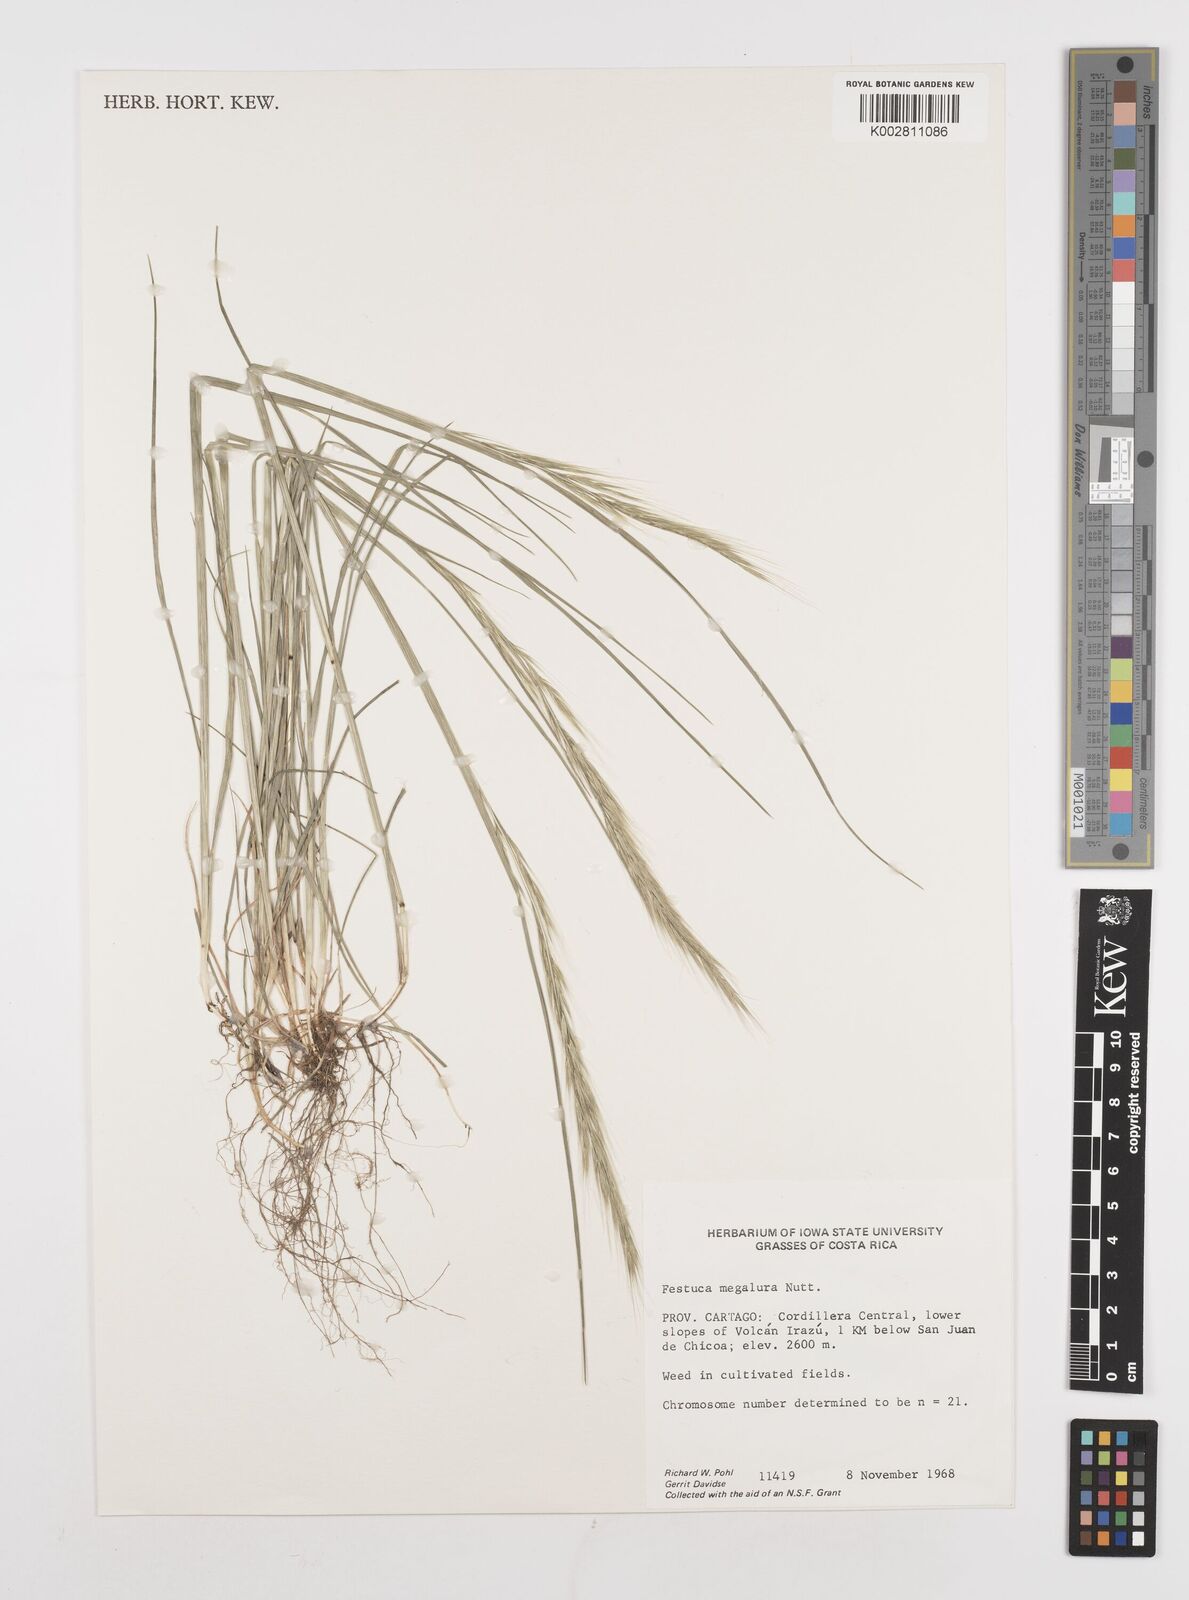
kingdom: Plantae
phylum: Tracheophyta
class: Liliopsida
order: Poales
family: Poaceae
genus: Festuca
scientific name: Festuca myuros
